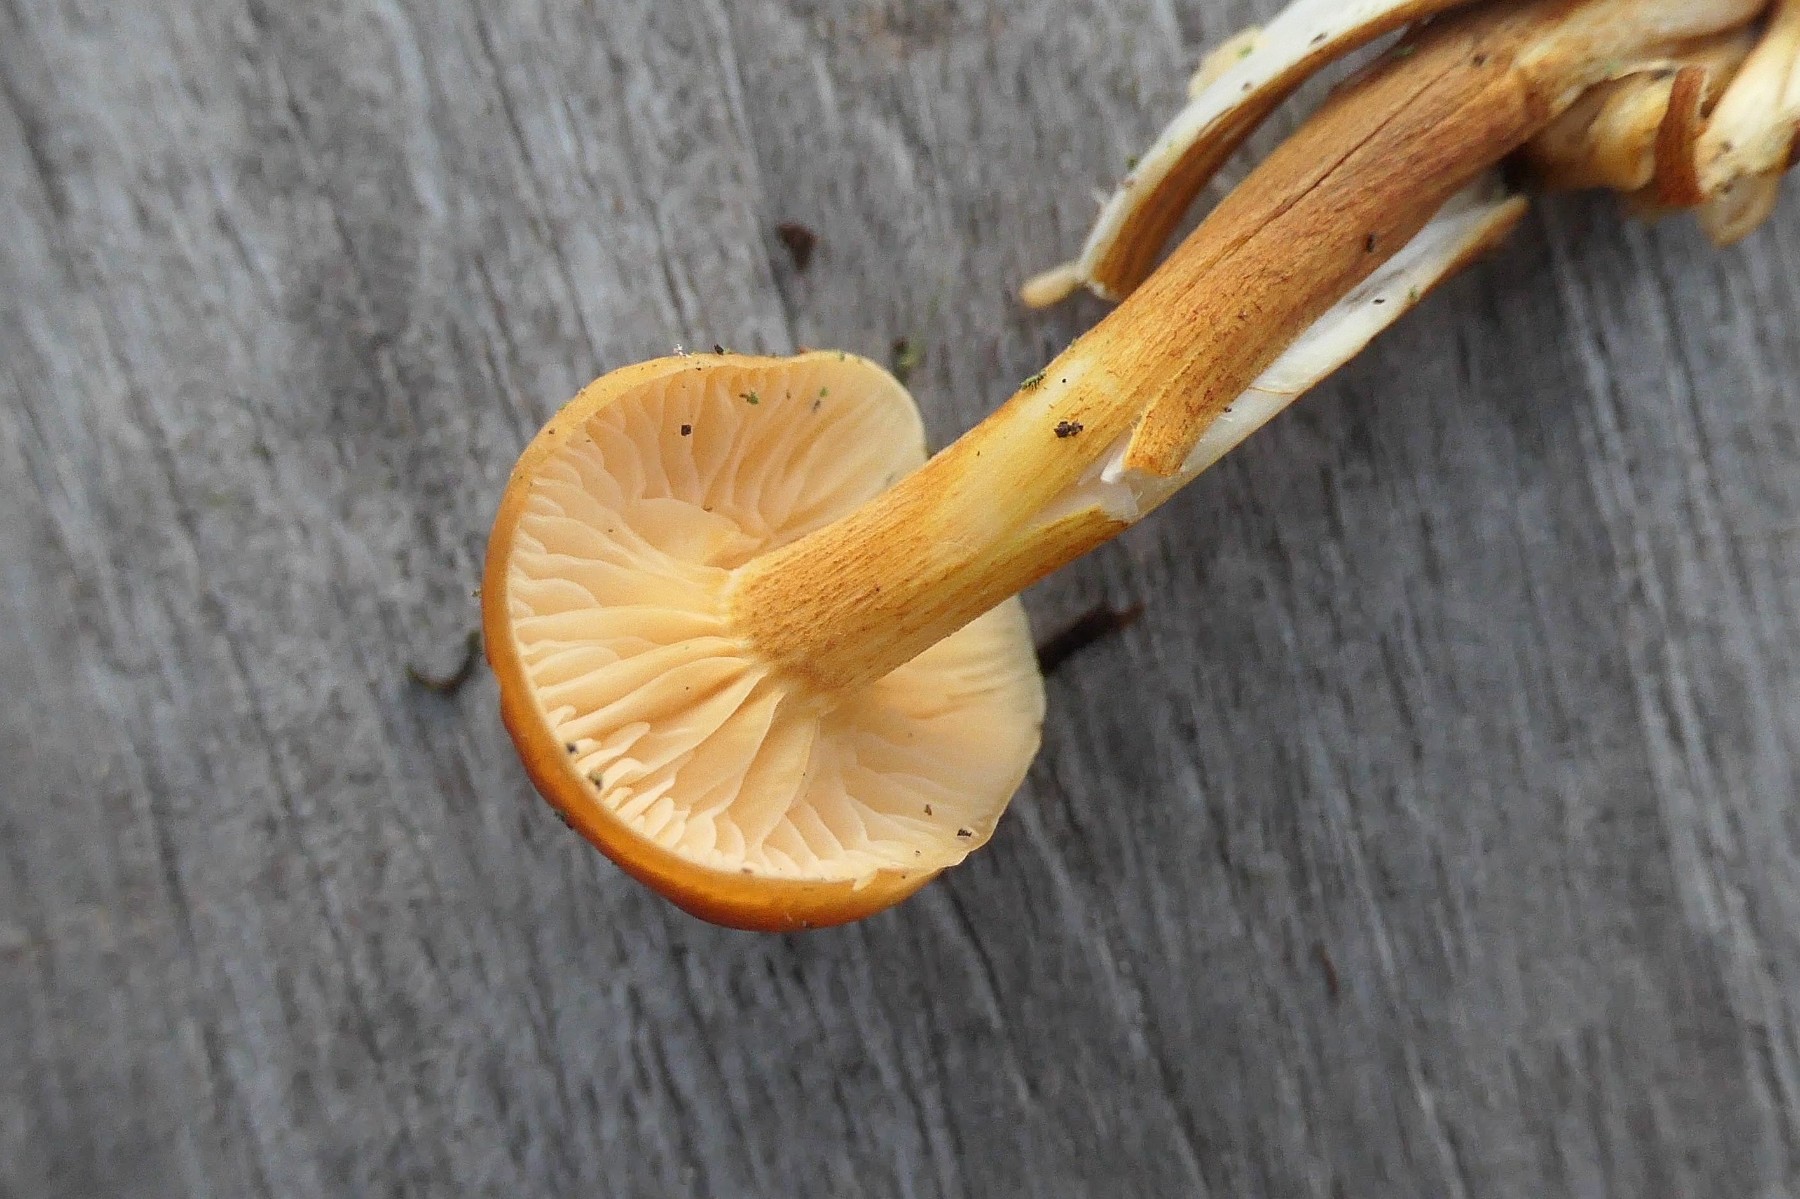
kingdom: Fungi
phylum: Basidiomycota
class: Agaricomycetes
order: Agaricales
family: Physalacriaceae
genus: Flammulina
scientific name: Flammulina elastica
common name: pile-fløjlsfod
